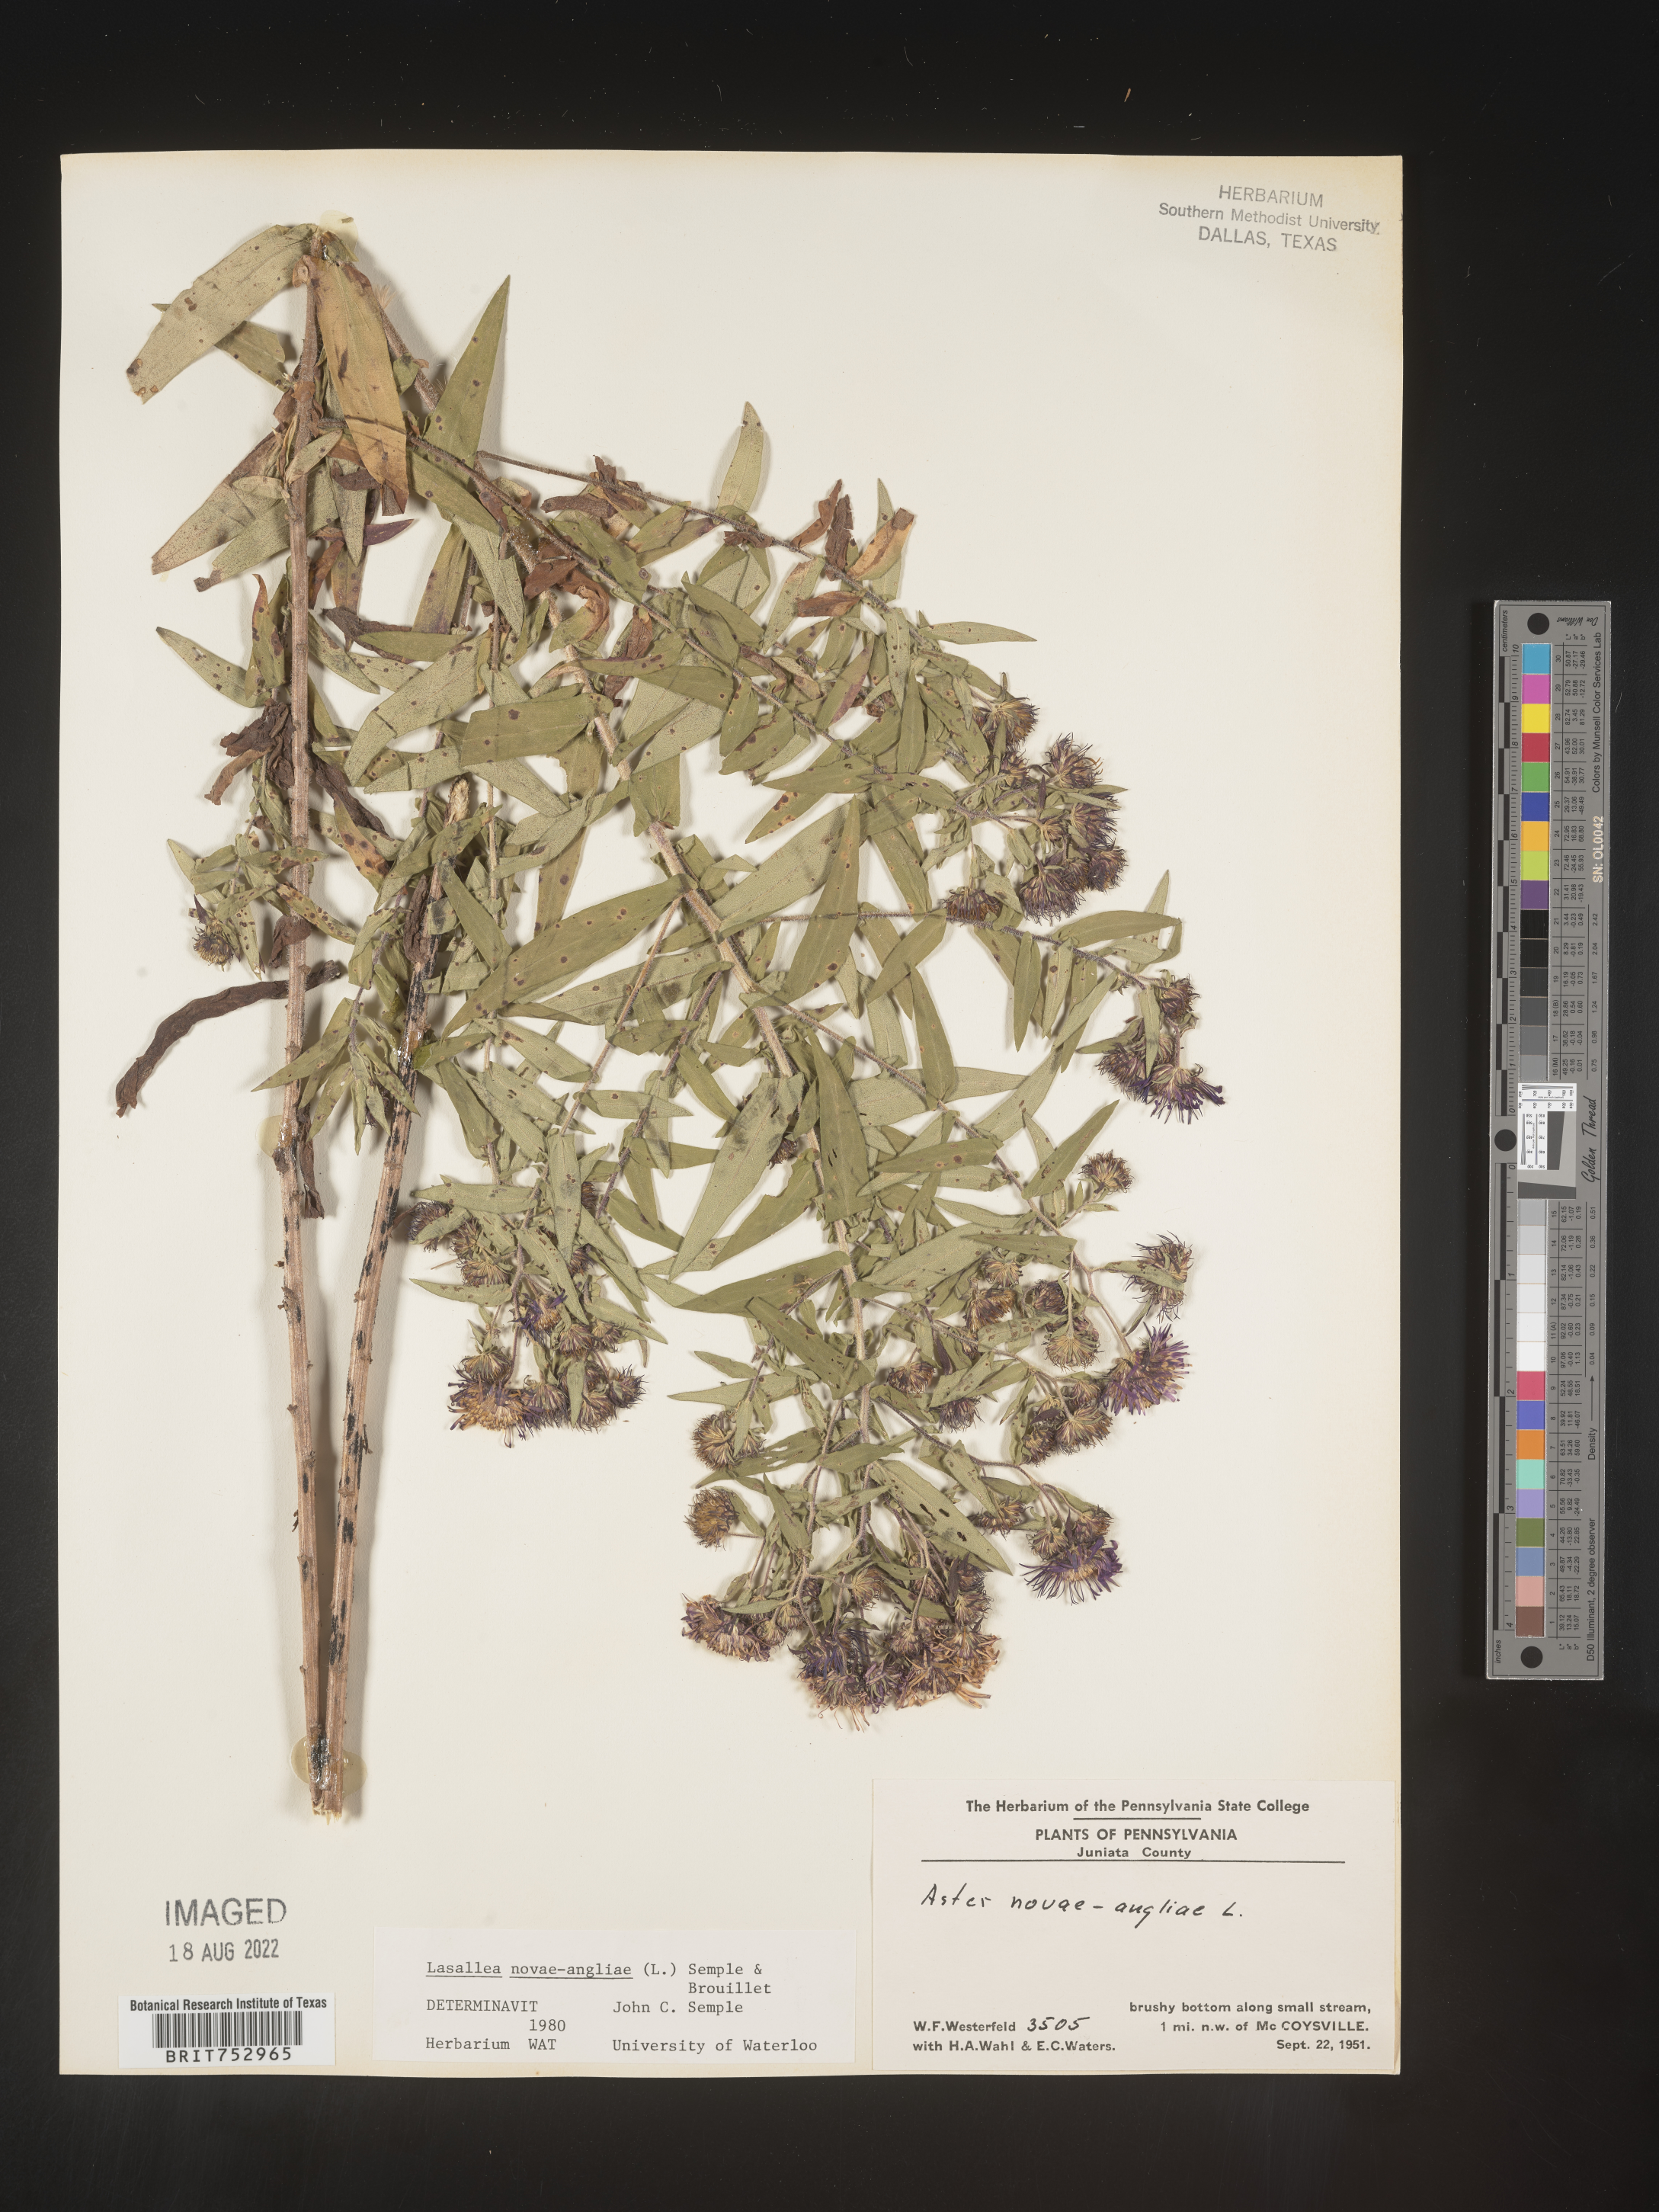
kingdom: Plantae
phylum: Tracheophyta
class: Magnoliopsida
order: Asterales
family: Asteraceae
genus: Symphyotrichum
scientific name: Symphyotrichum novae-angliae
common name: Michaelmas daisy
